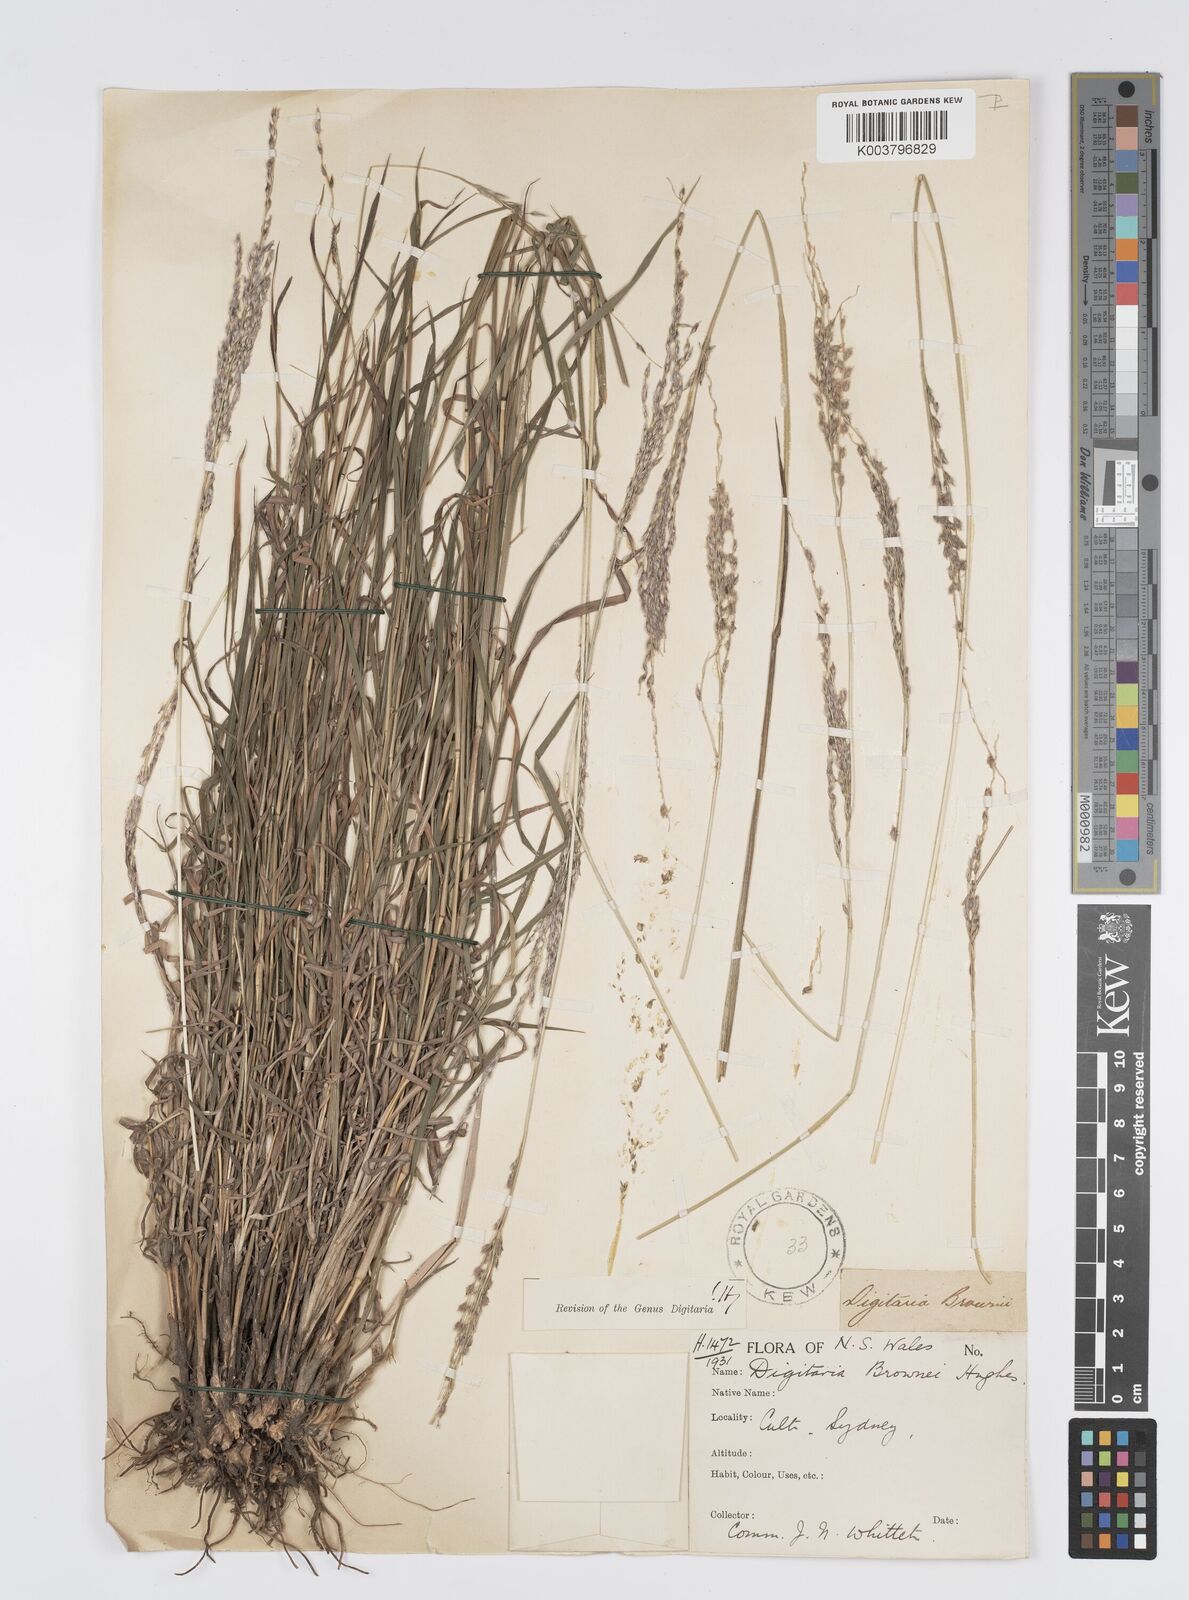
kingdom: Plantae
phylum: Tracheophyta
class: Liliopsida
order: Poales
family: Poaceae
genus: Digitaria
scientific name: Digitaria brownii
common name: Cotton grass
